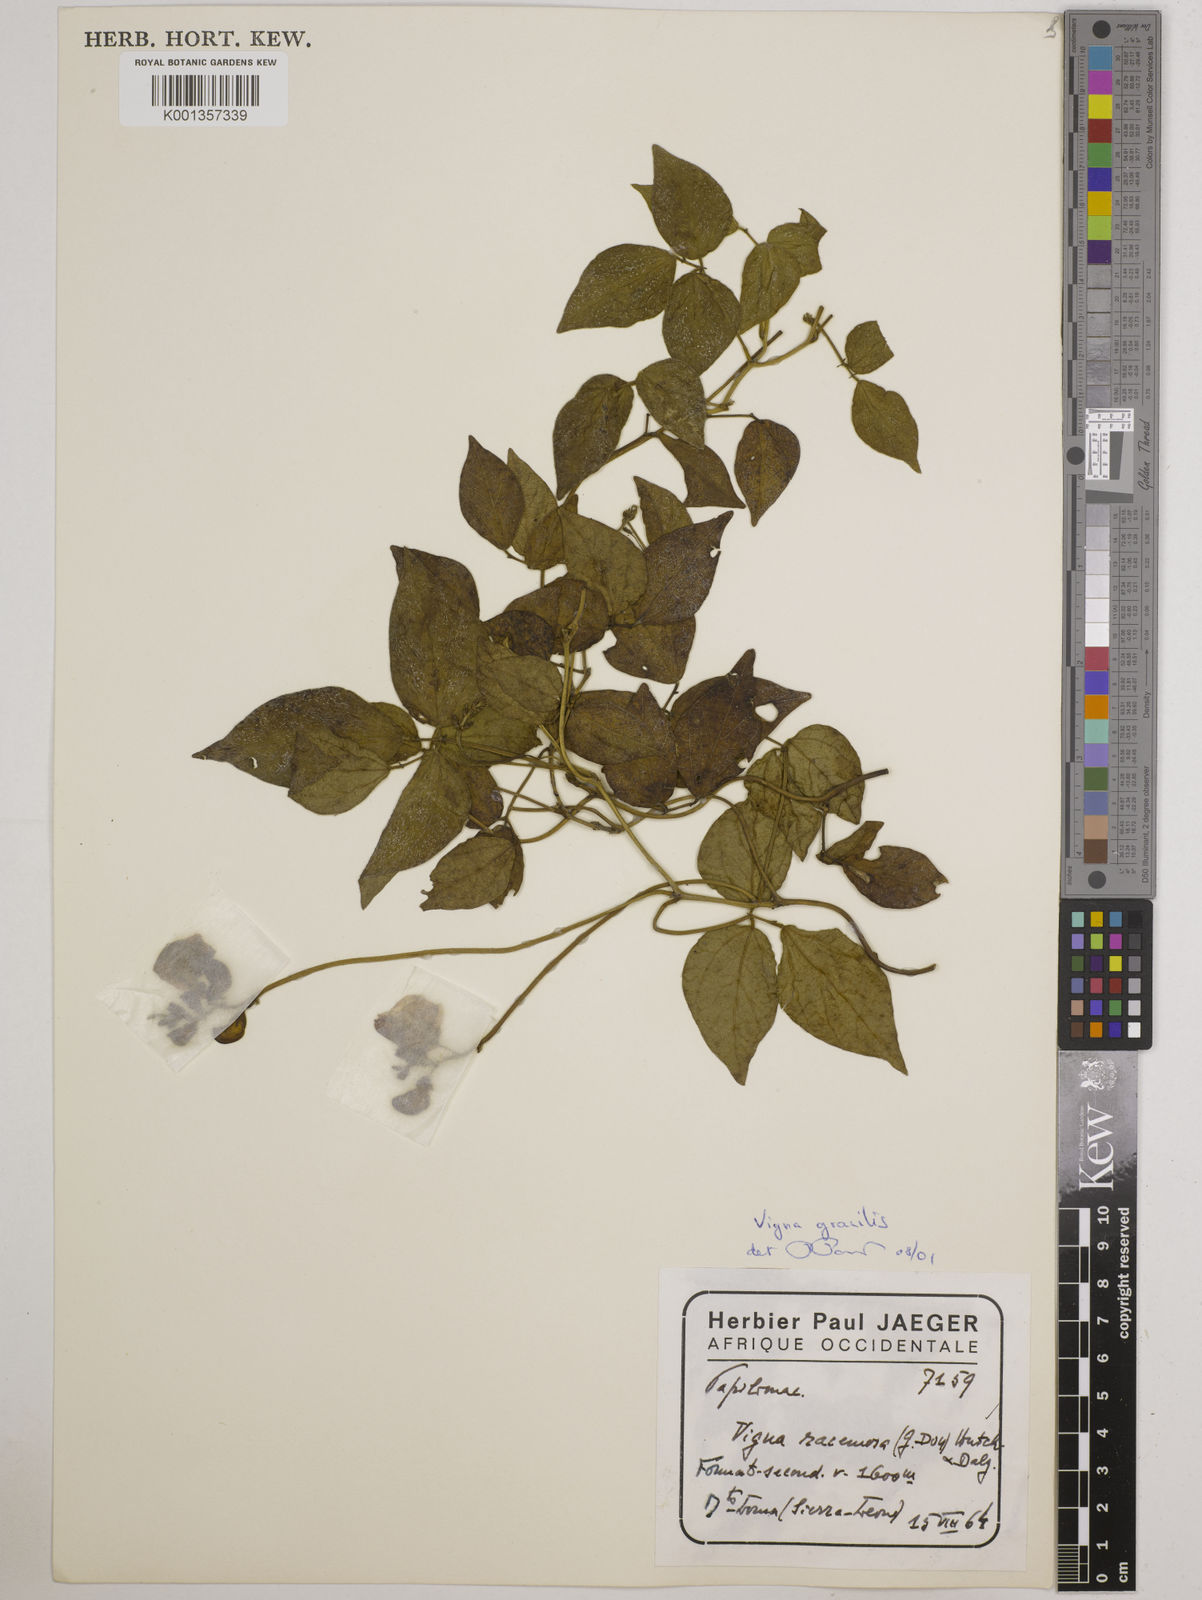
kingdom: Plantae
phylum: Tracheophyta
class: Magnoliopsida
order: Fabales
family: Fabaceae
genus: Vigna
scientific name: Vigna gracilis
